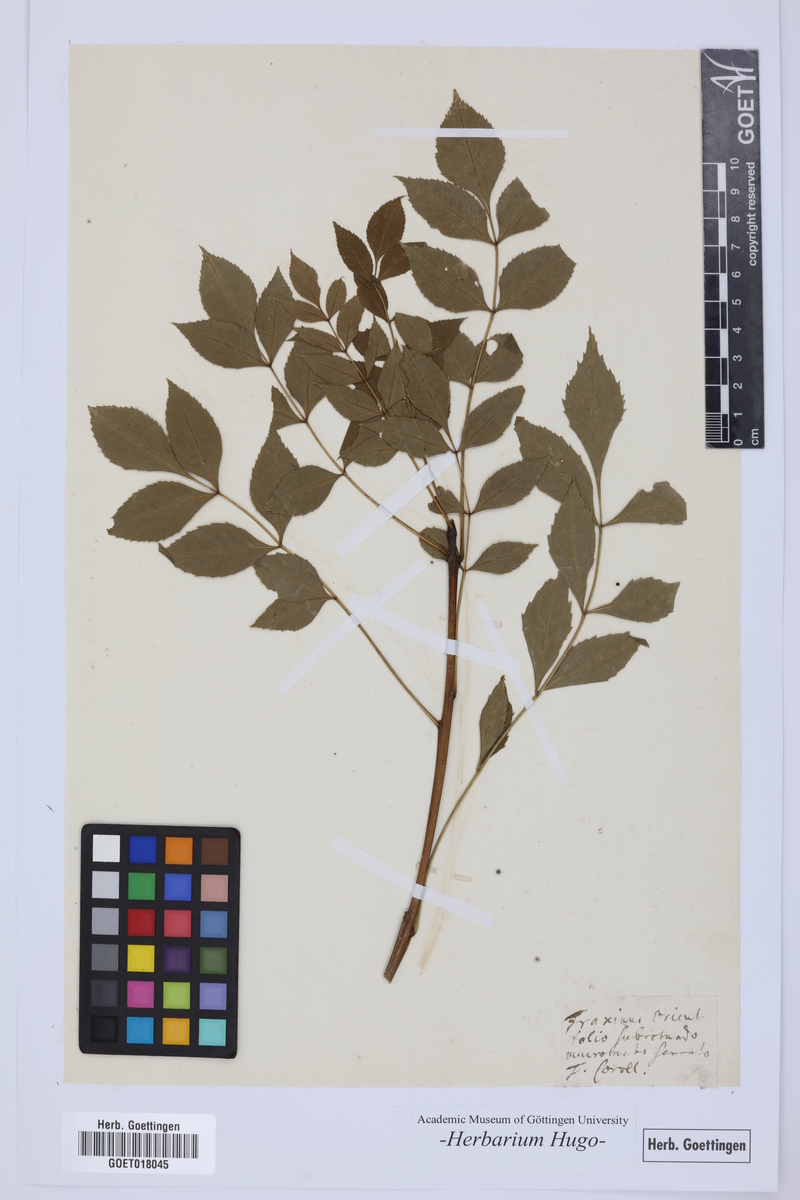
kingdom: Plantae
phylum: Tracheophyta
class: Magnoliopsida
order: Lamiales
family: Oleaceae
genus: Fraxinus
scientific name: Fraxinus
